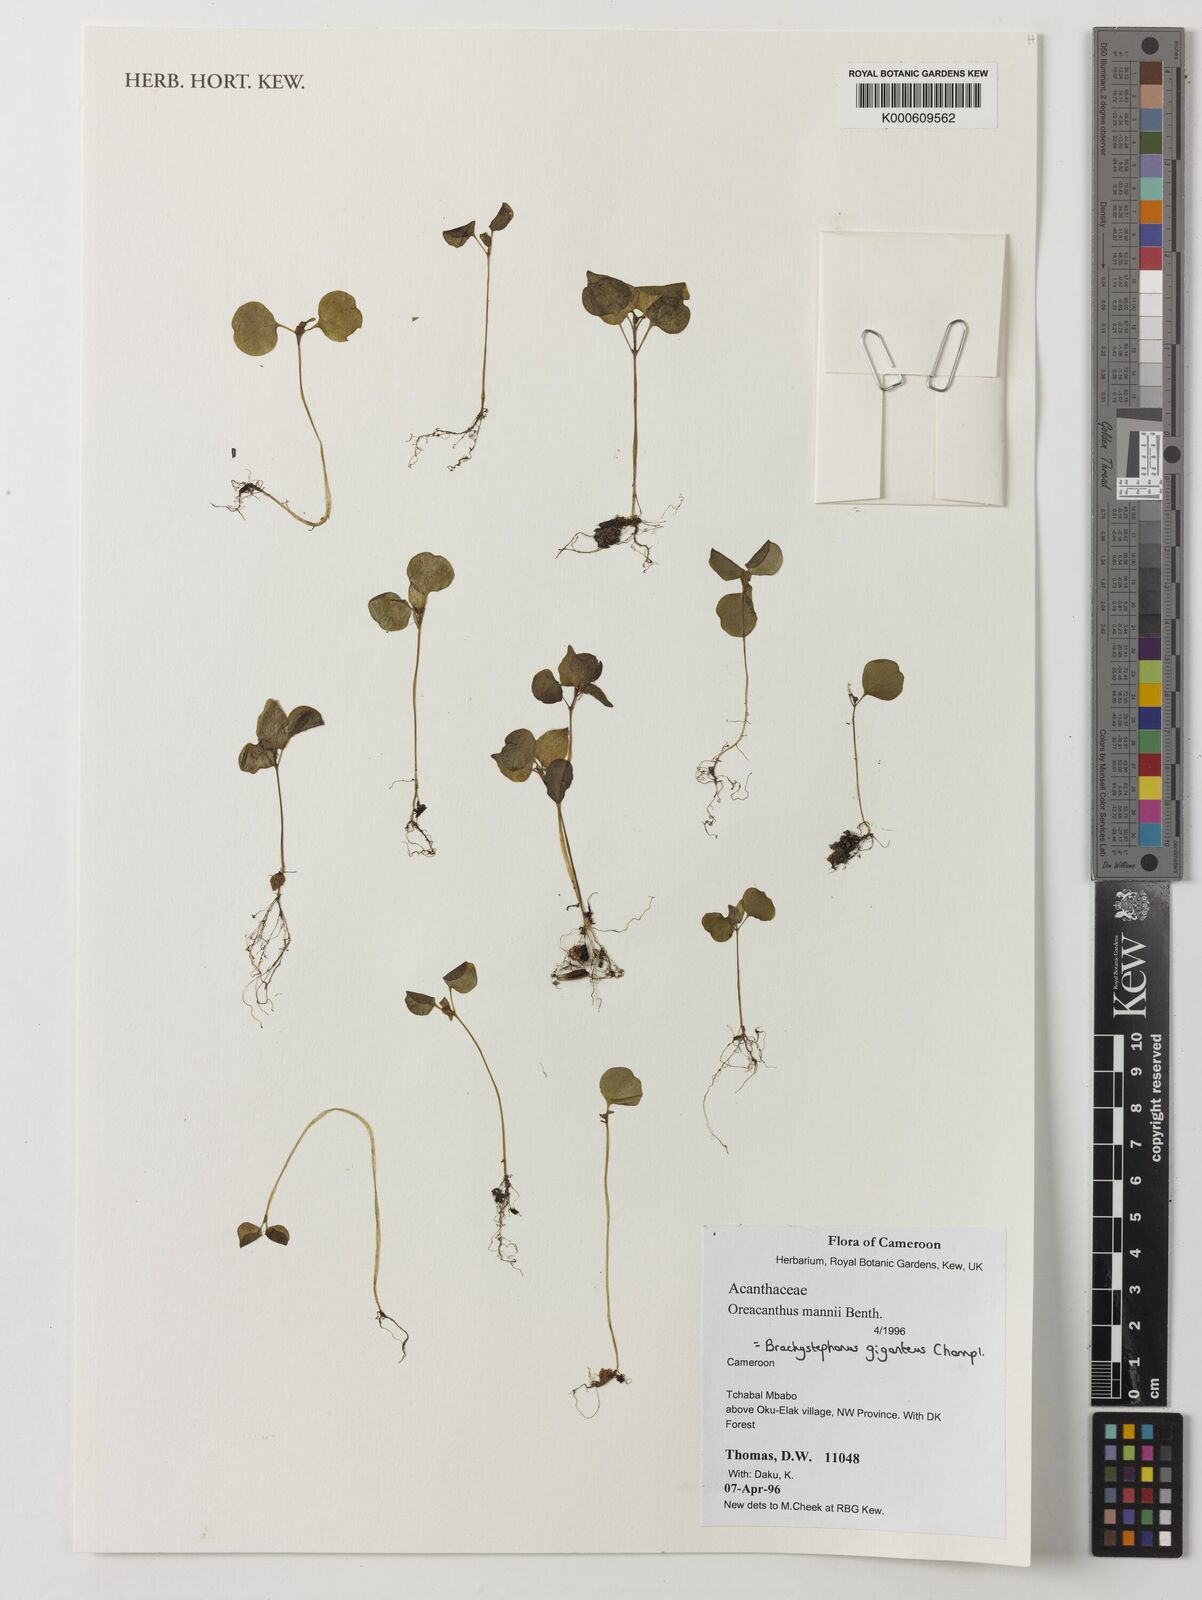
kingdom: Plantae
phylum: Tracheophyta
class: Magnoliopsida
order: Lamiales
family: Acanthaceae
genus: Brachystephanus
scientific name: Brachystephanus giganteus
